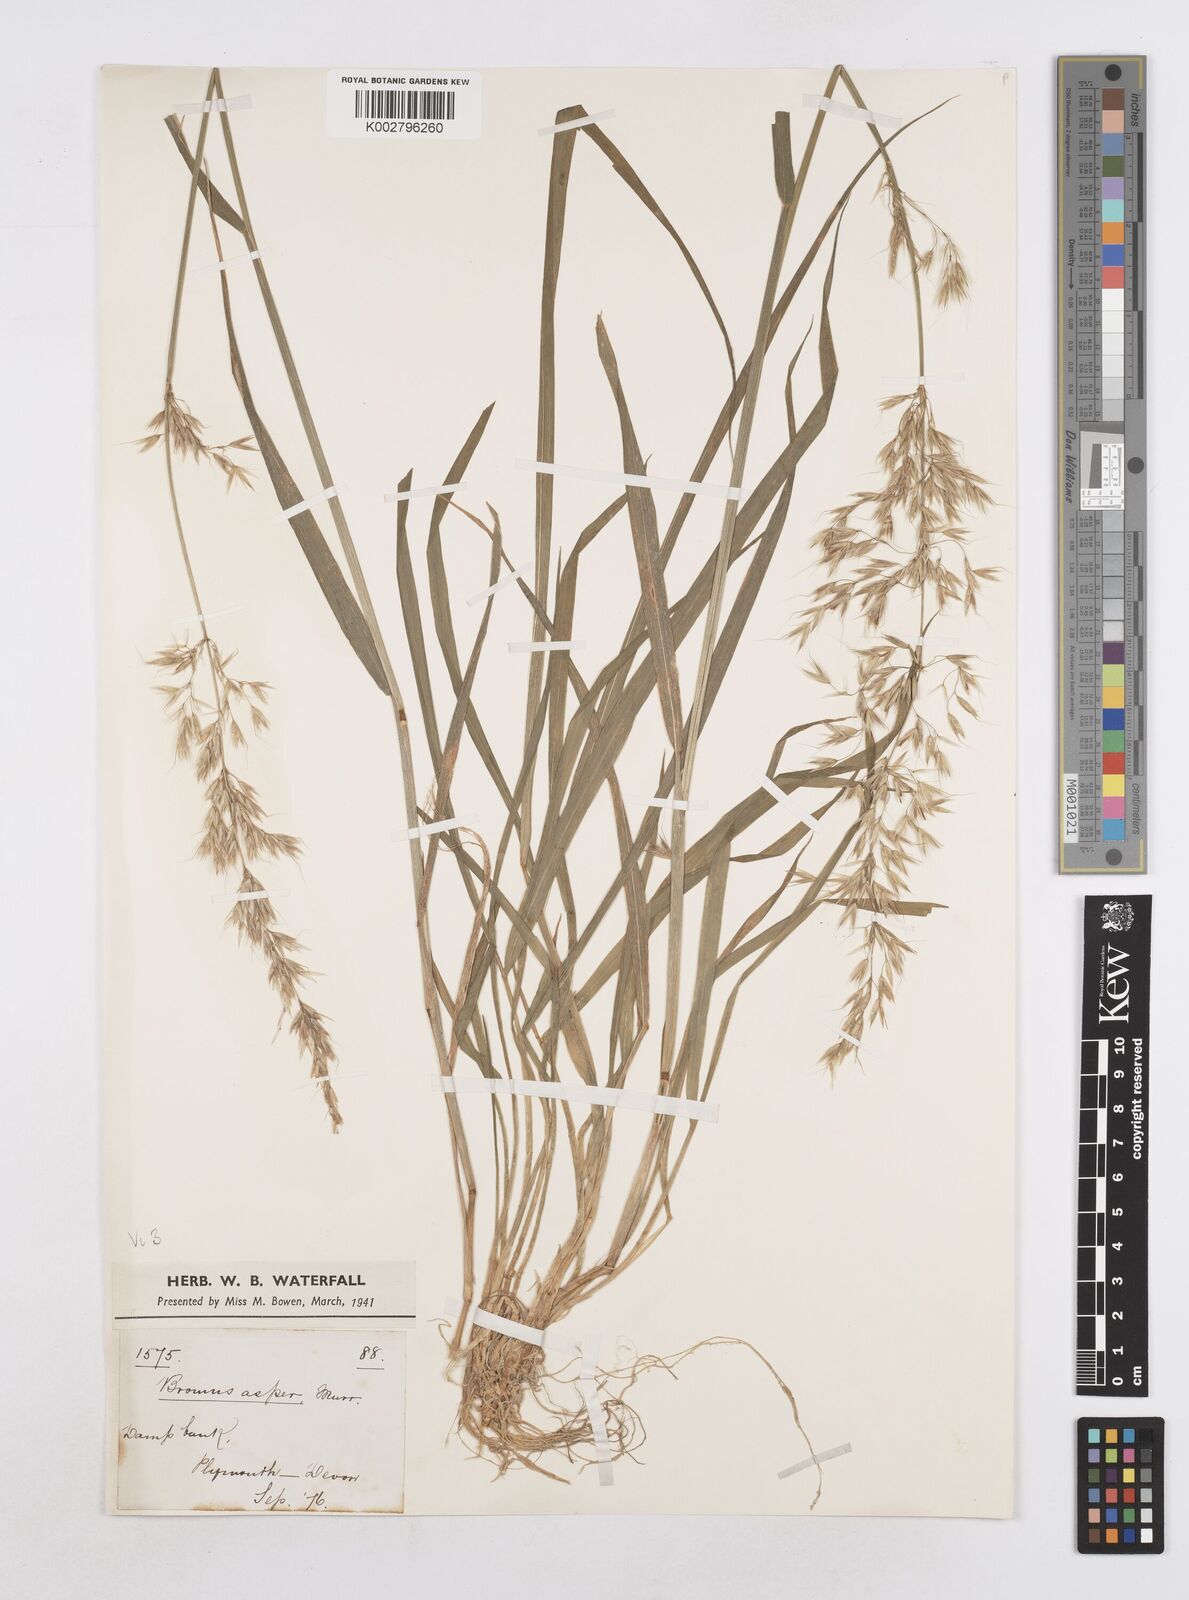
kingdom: Plantae
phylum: Tracheophyta
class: Liliopsida
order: Poales
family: Poaceae
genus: Arrhenatherum
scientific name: Arrhenatherum elatius
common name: Tall oatgrass
